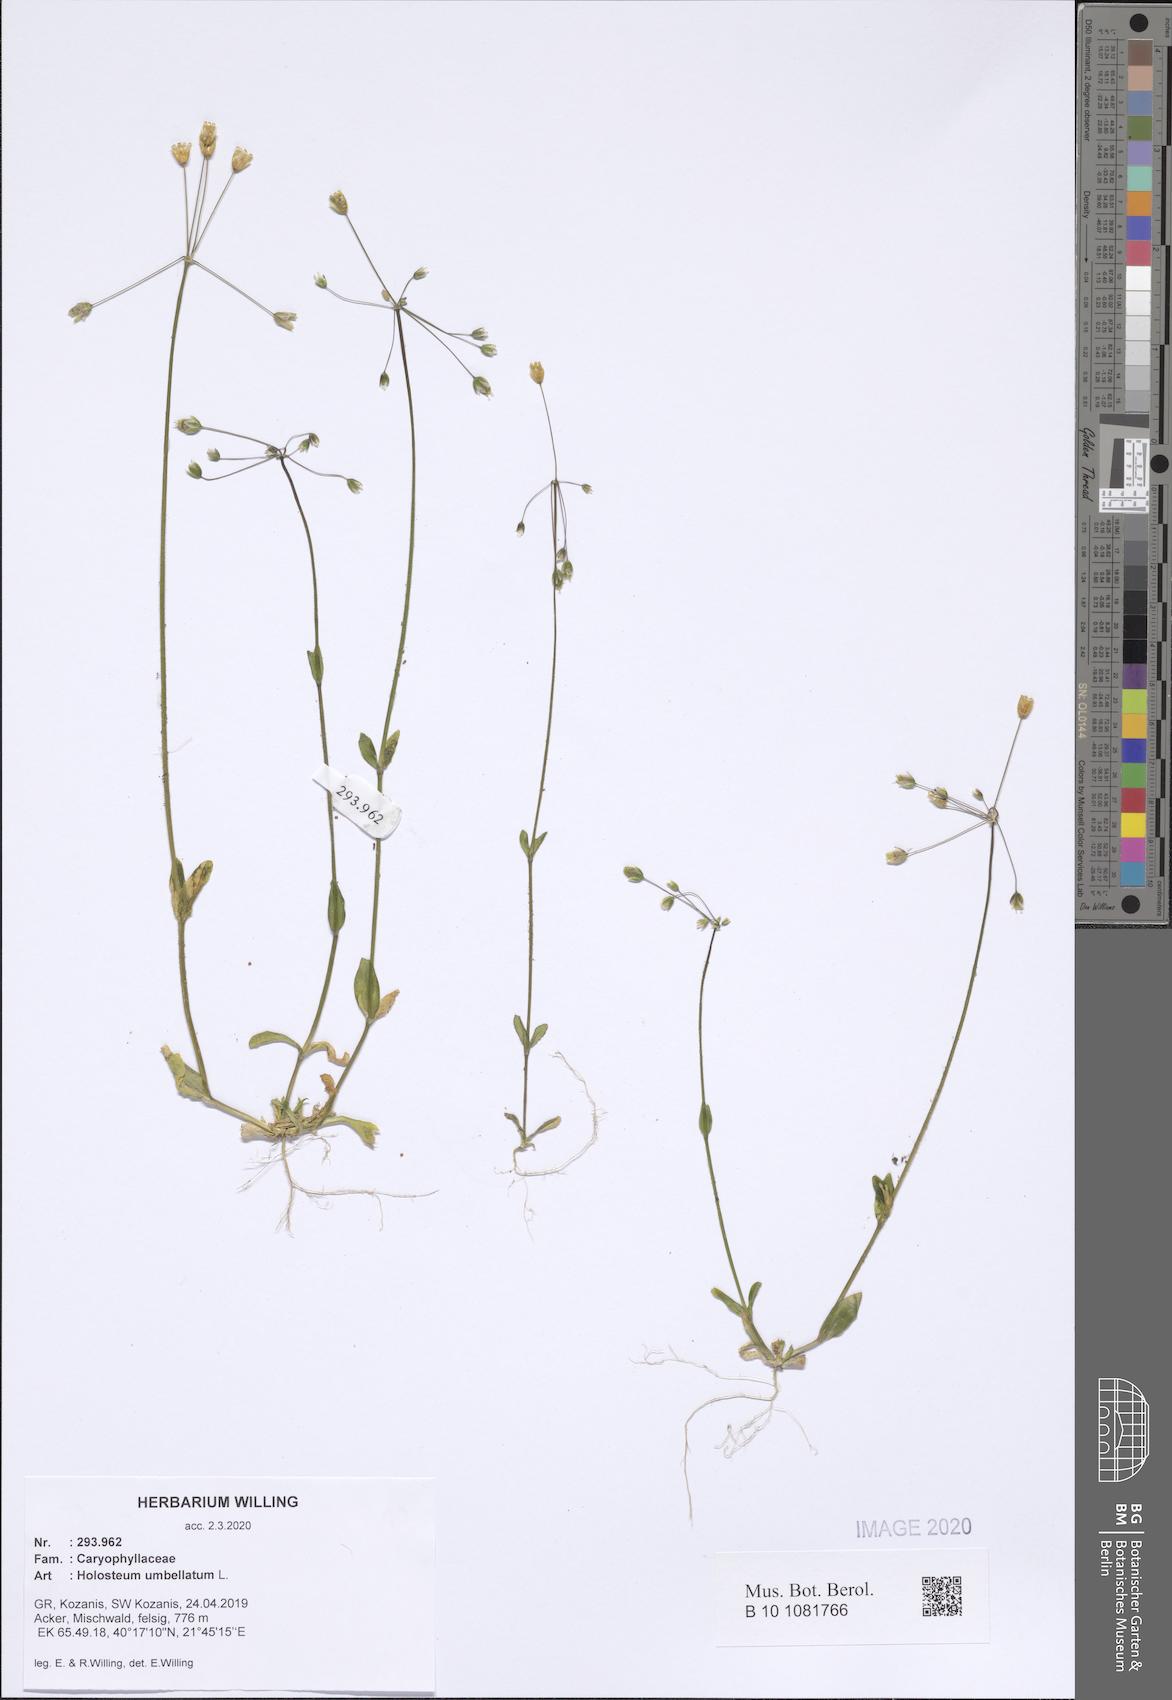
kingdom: Plantae
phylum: Tracheophyta
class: Magnoliopsida
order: Caryophyllales
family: Caryophyllaceae
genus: Holosteum
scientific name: Holosteum umbellatum
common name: Jagged chickweed
